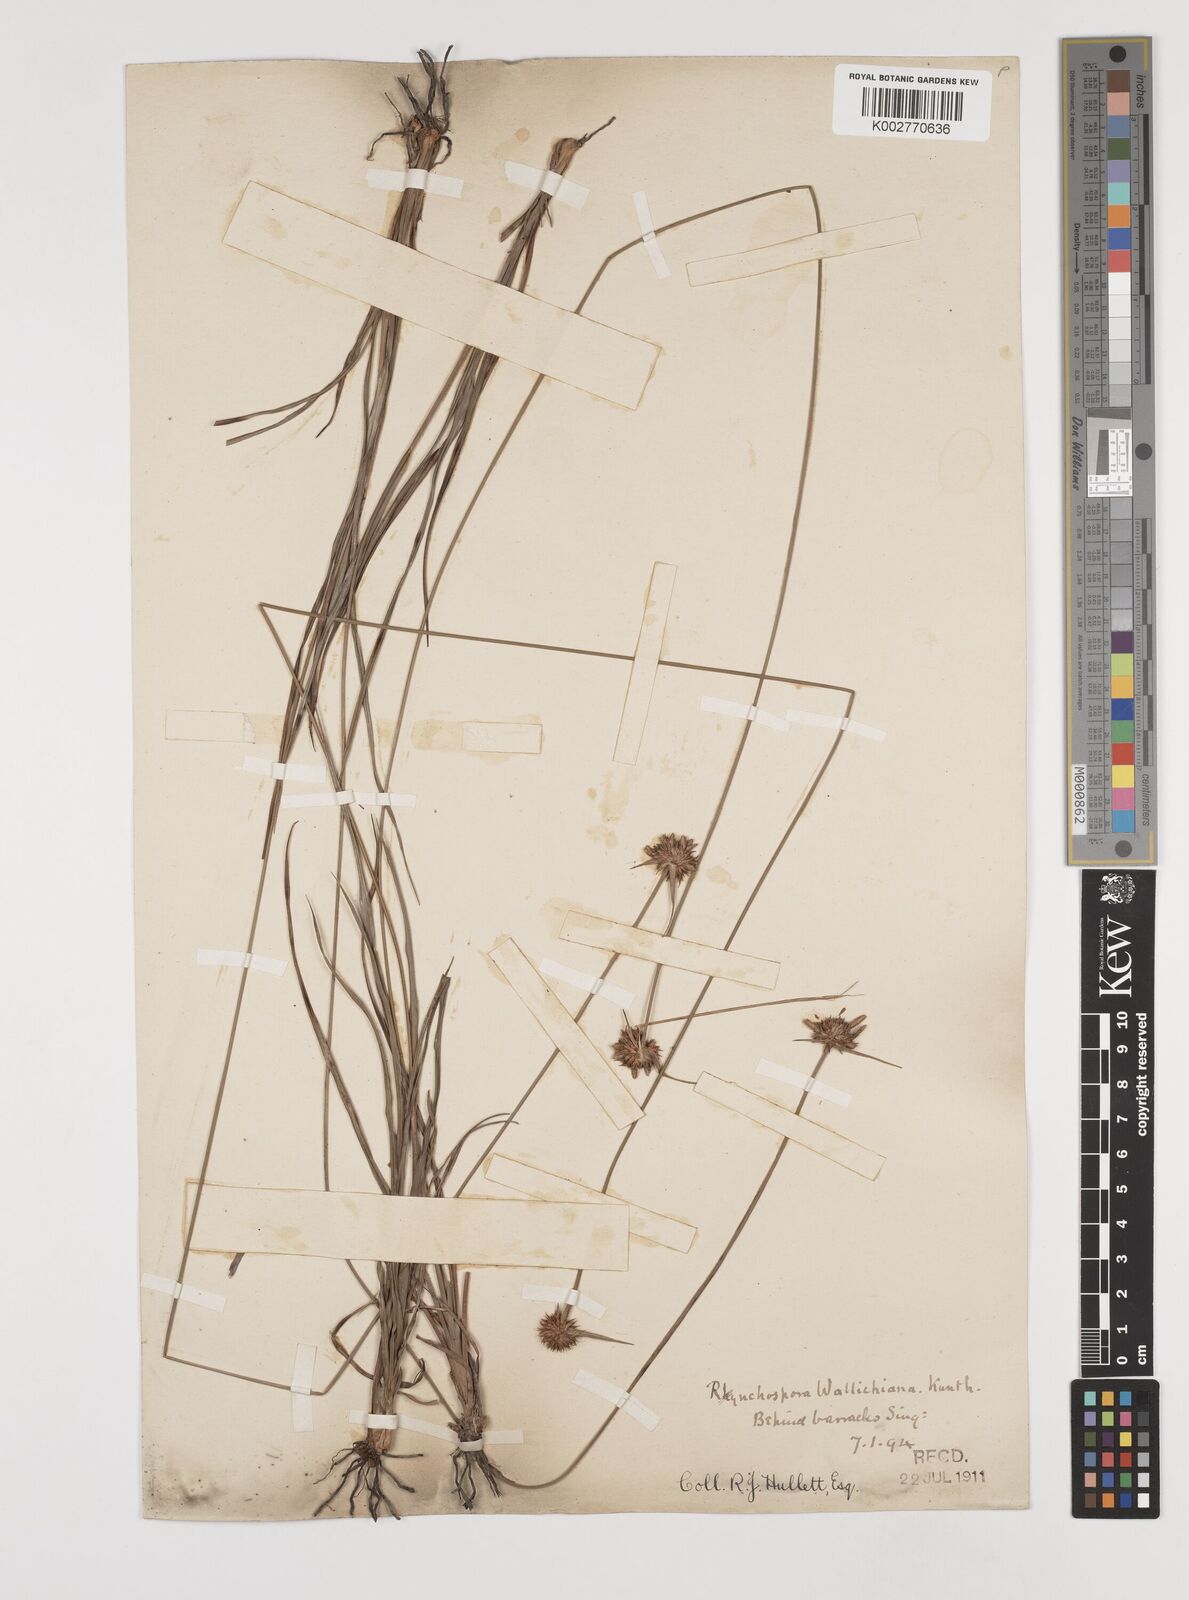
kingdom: Plantae
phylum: Tracheophyta
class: Liliopsida
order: Poales
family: Cyperaceae
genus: Rhynchospora
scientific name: Rhynchospora rubra
